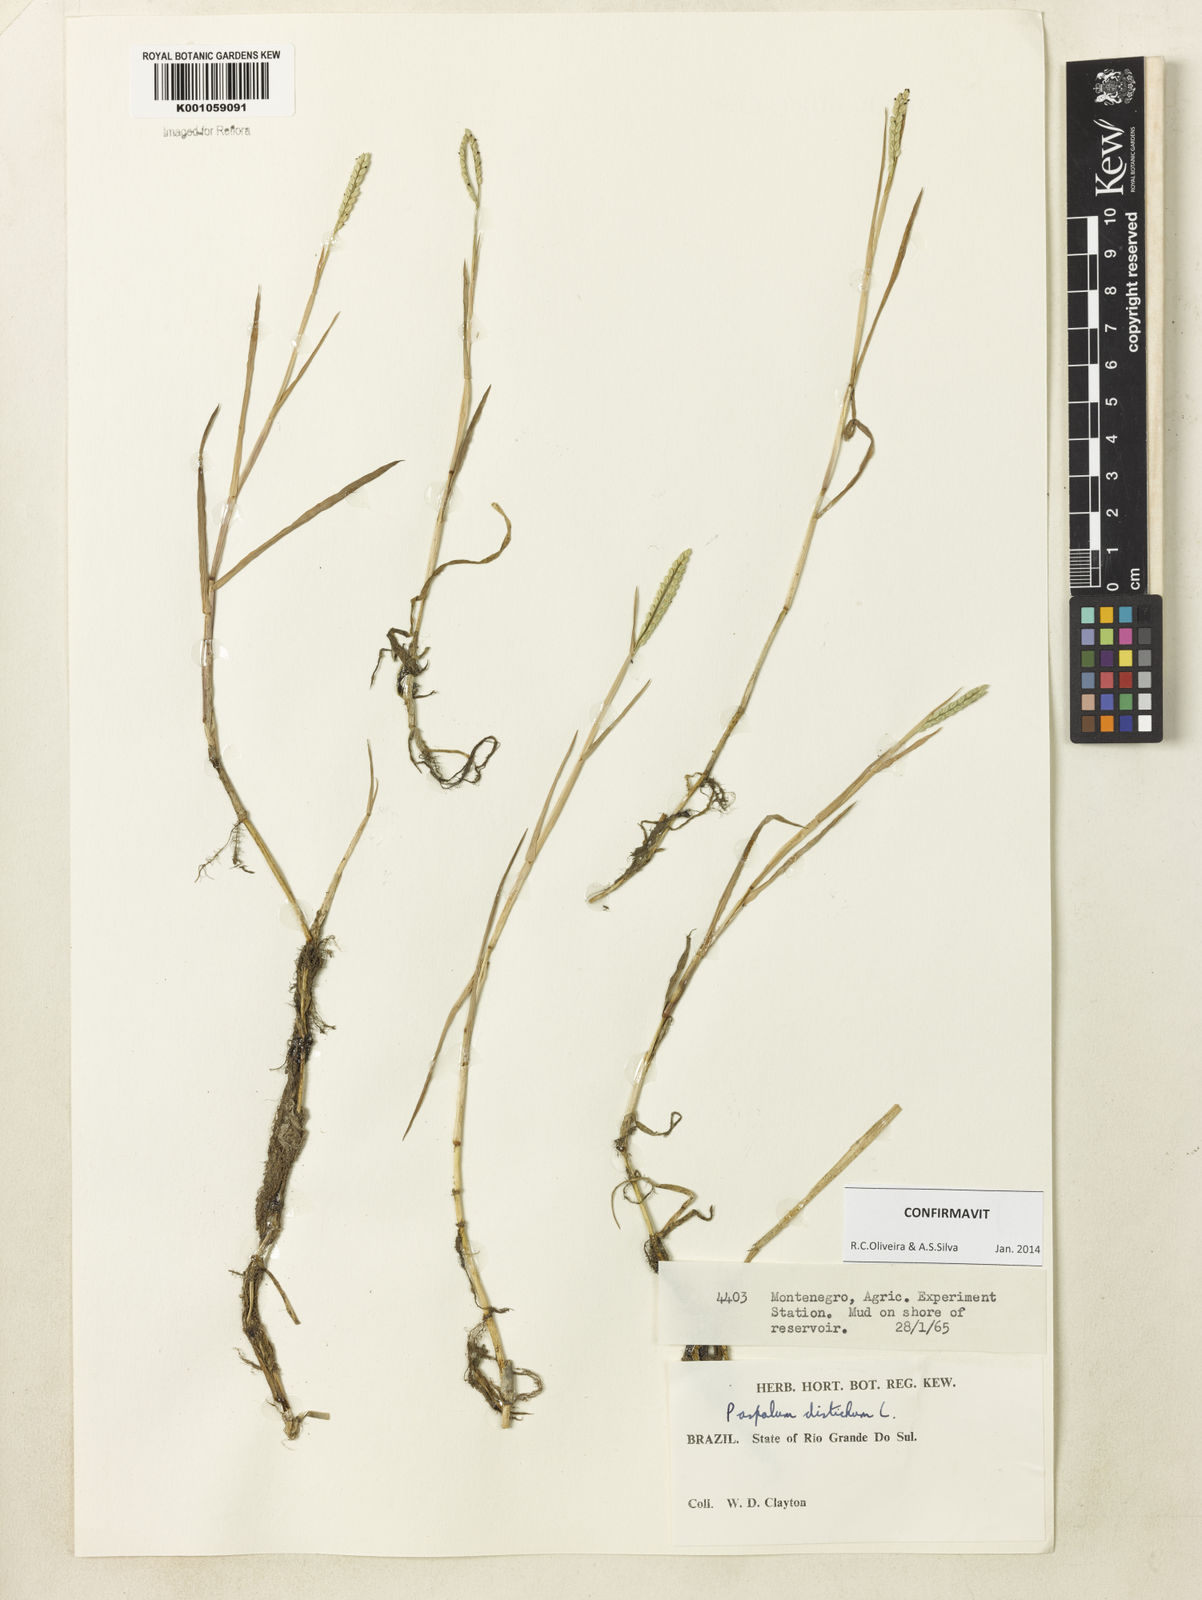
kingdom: Plantae
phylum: Tracheophyta
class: Liliopsida
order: Poales
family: Poaceae
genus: Paspalum
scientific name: Paspalum distichum
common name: Knotgrass
